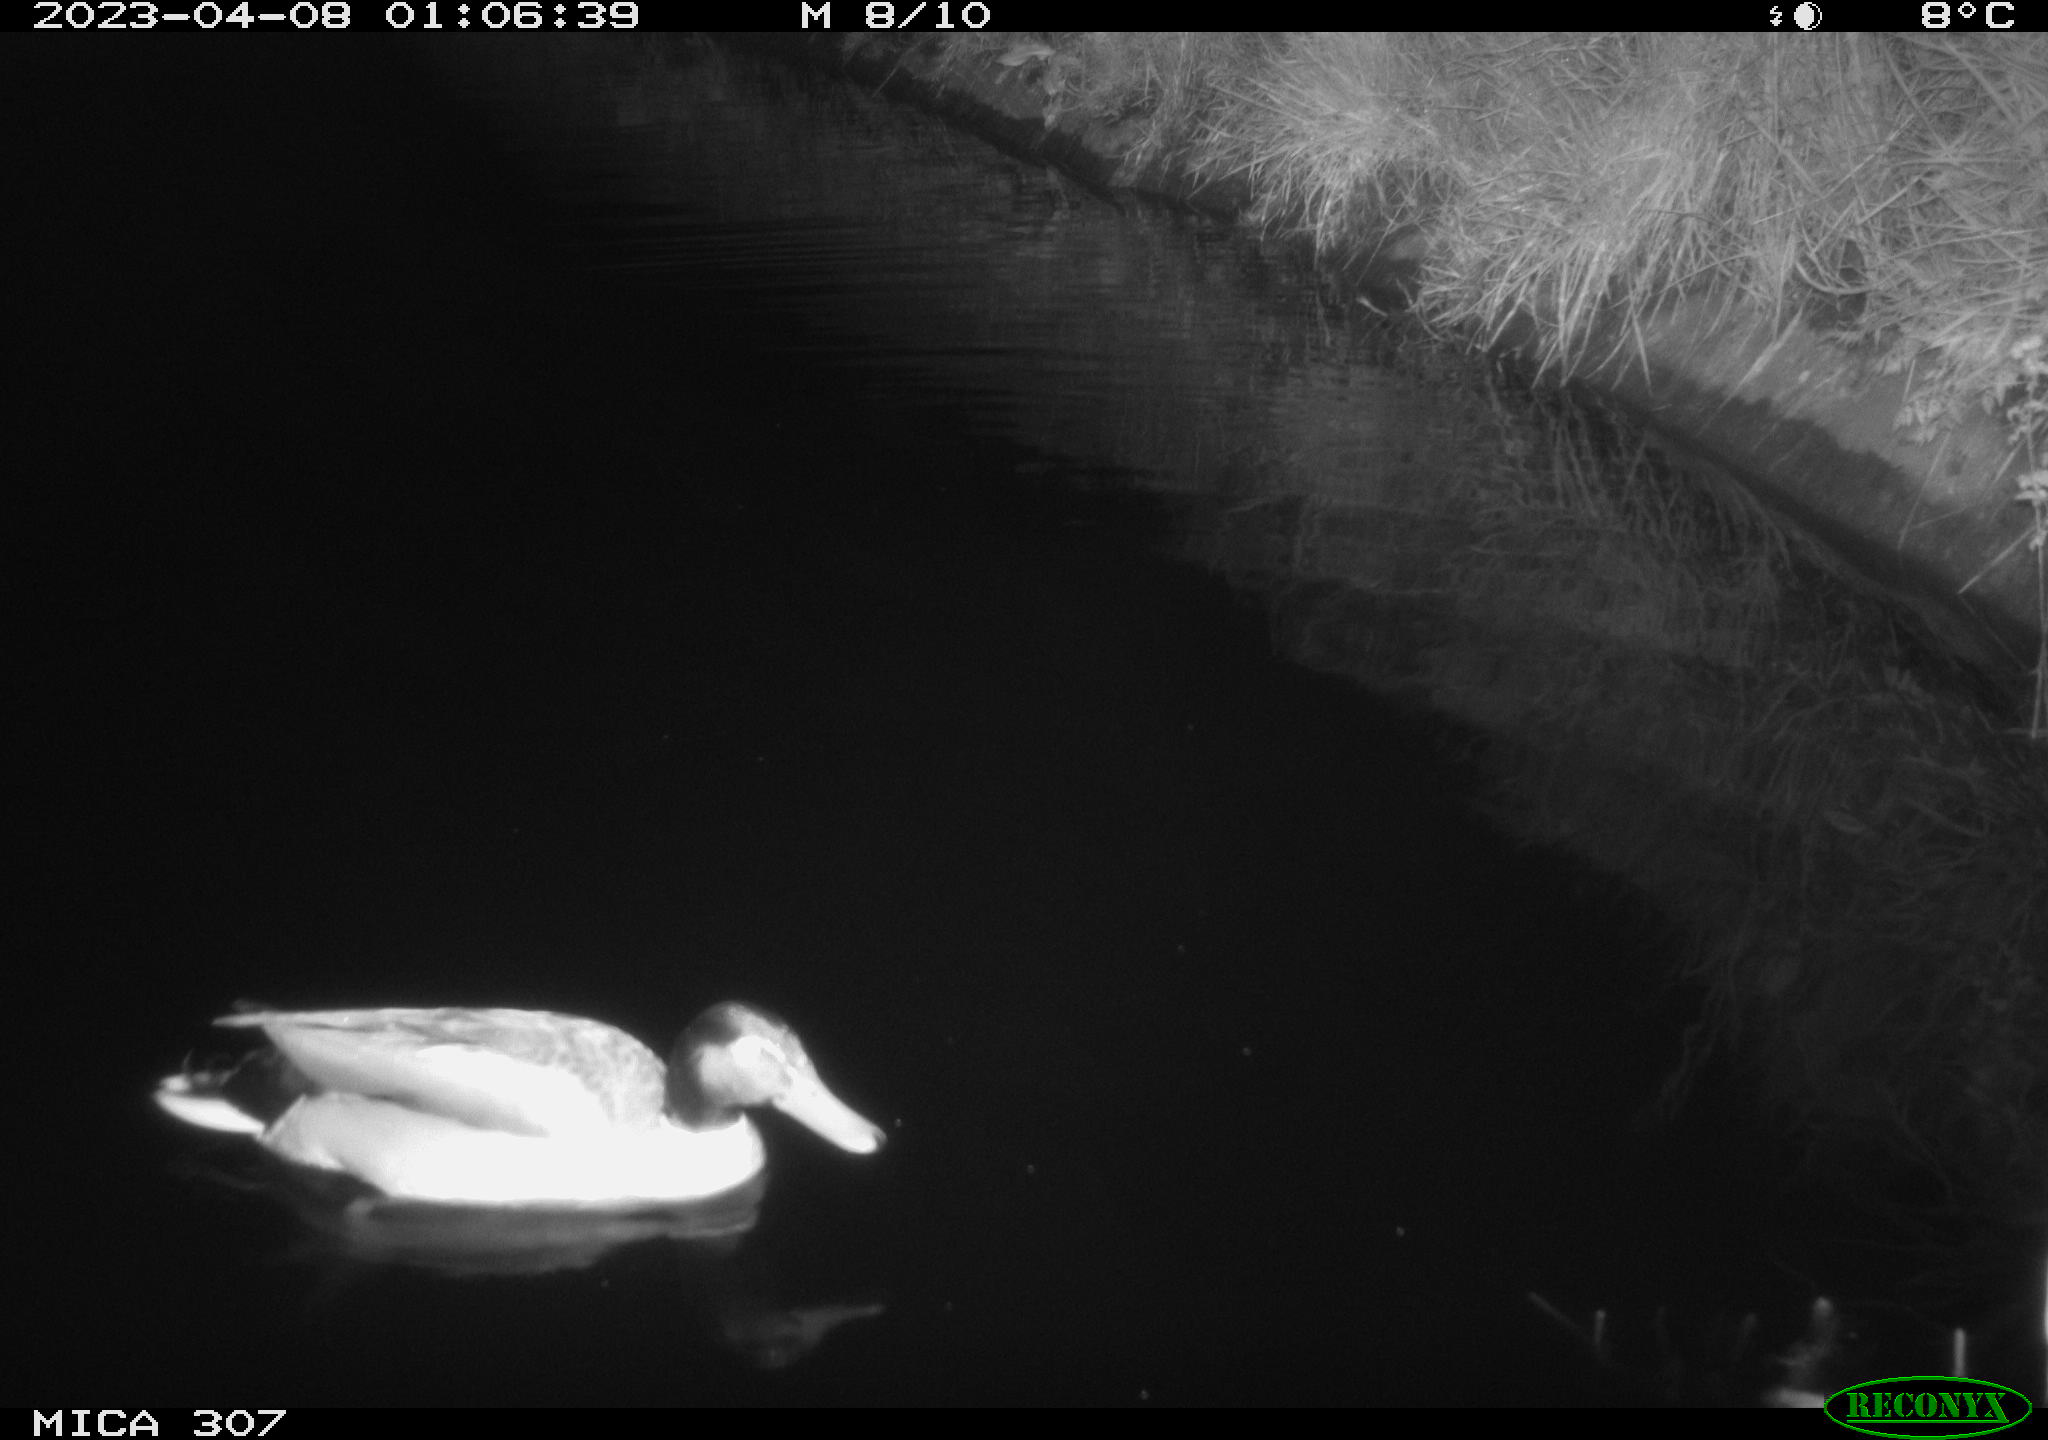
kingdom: Animalia
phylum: Chordata
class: Aves
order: Anseriformes
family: Anatidae
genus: Anas
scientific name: Anas
